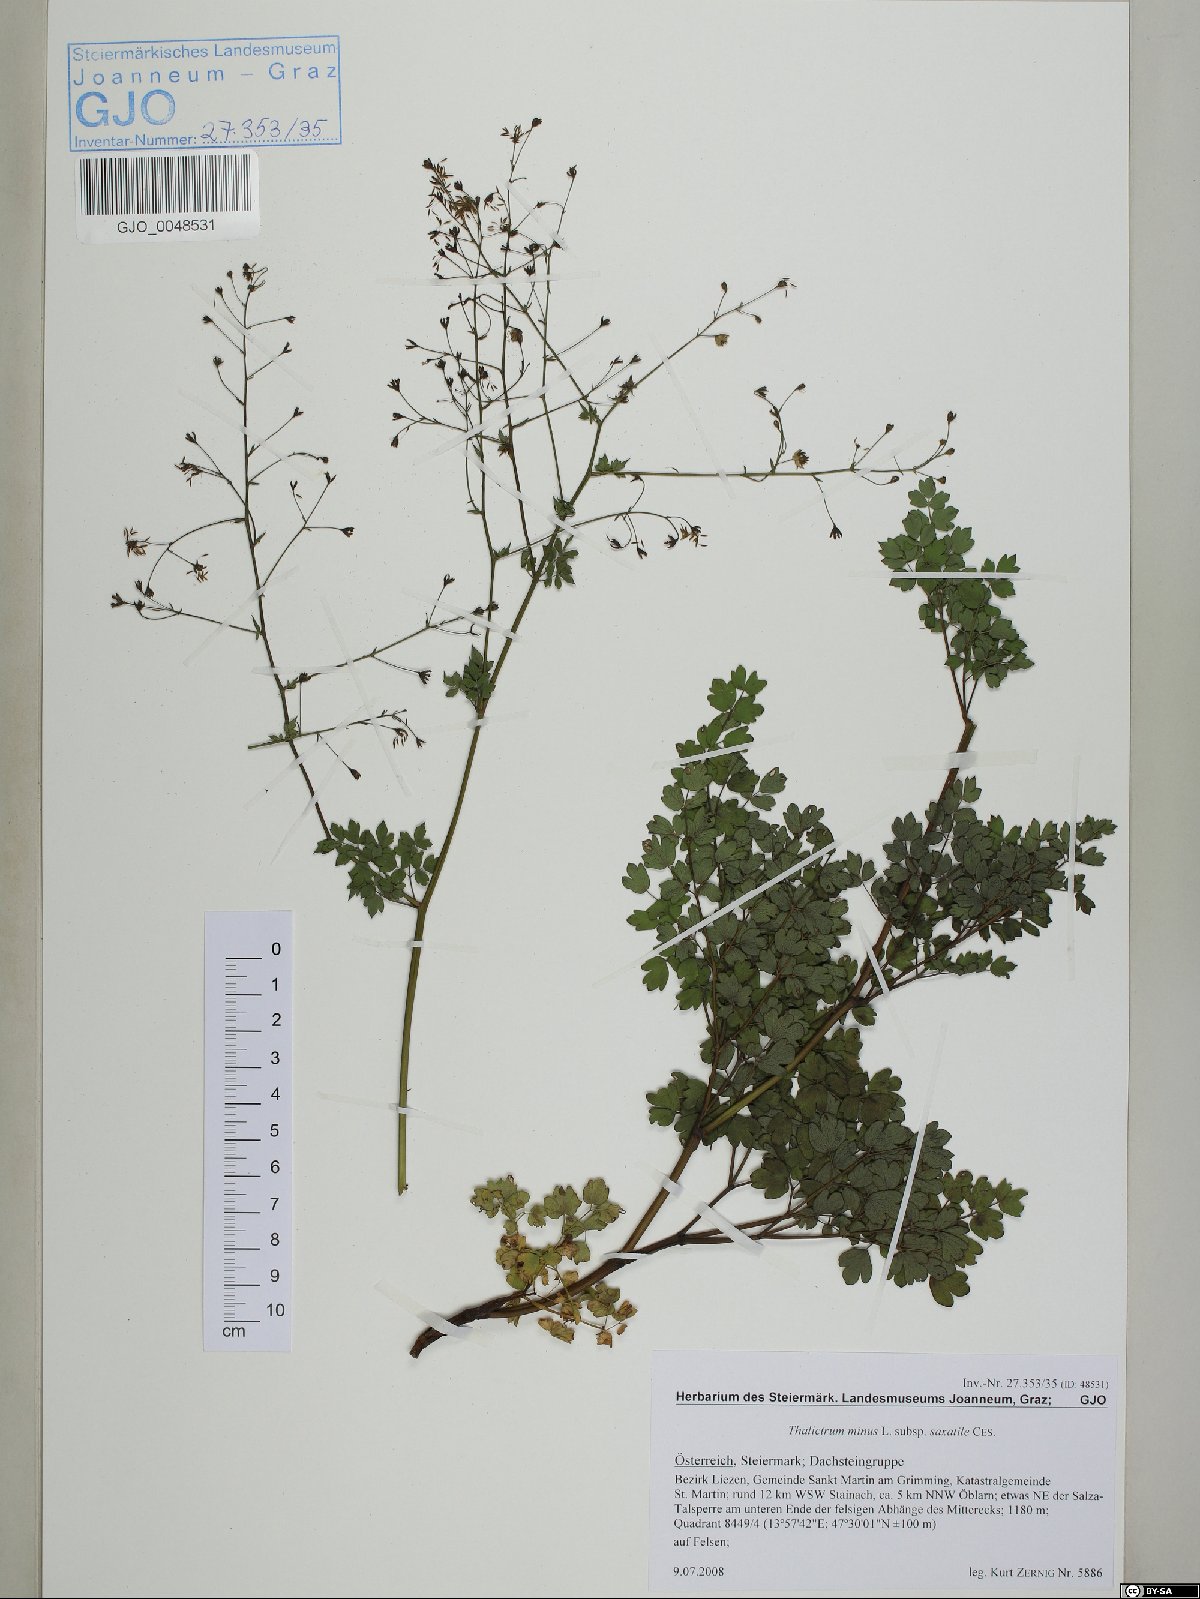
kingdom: Plantae
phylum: Tracheophyta
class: Magnoliopsida
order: Ranunculales
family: Ranunculaceae
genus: Thalictrum
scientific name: Thalictrum minus
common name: Lesser meadow-rue
